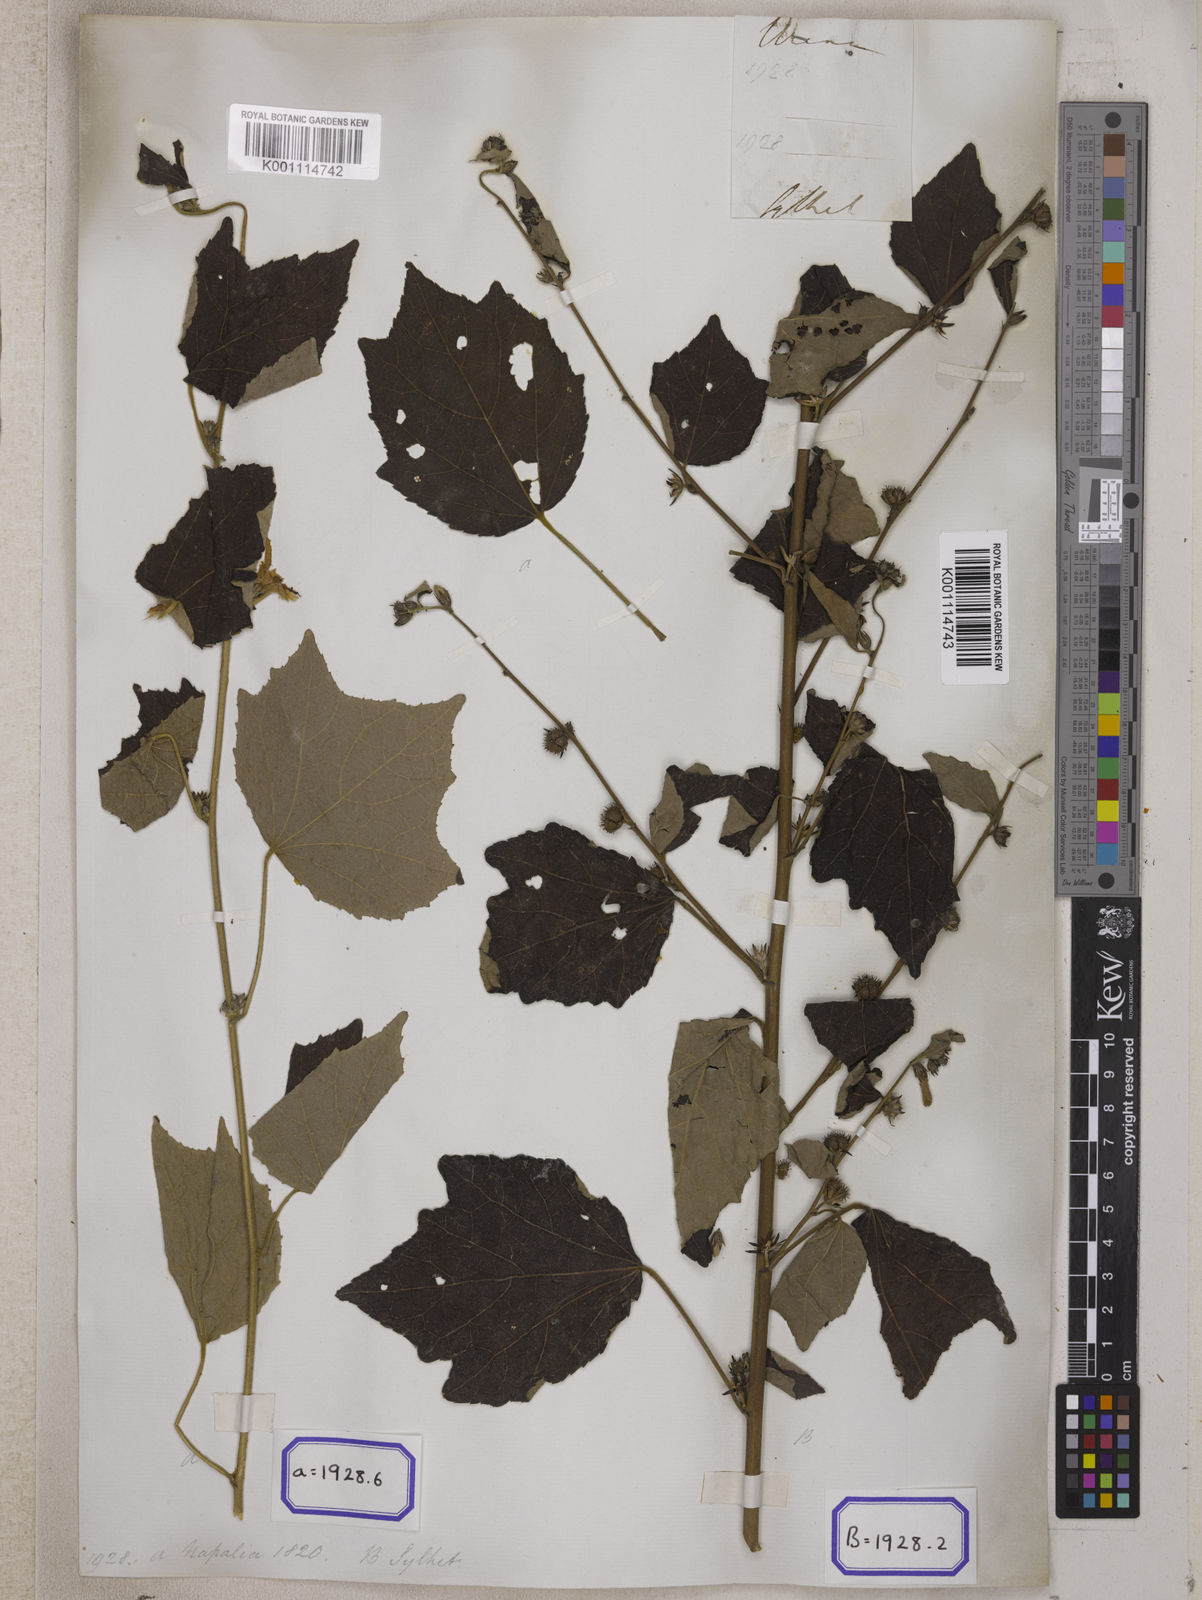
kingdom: Plantae
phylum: Tracheophyta
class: Magnoliopsida
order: Malvales
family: Malvaceae
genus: Urena
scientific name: Urena lobata
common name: Caesarweed
